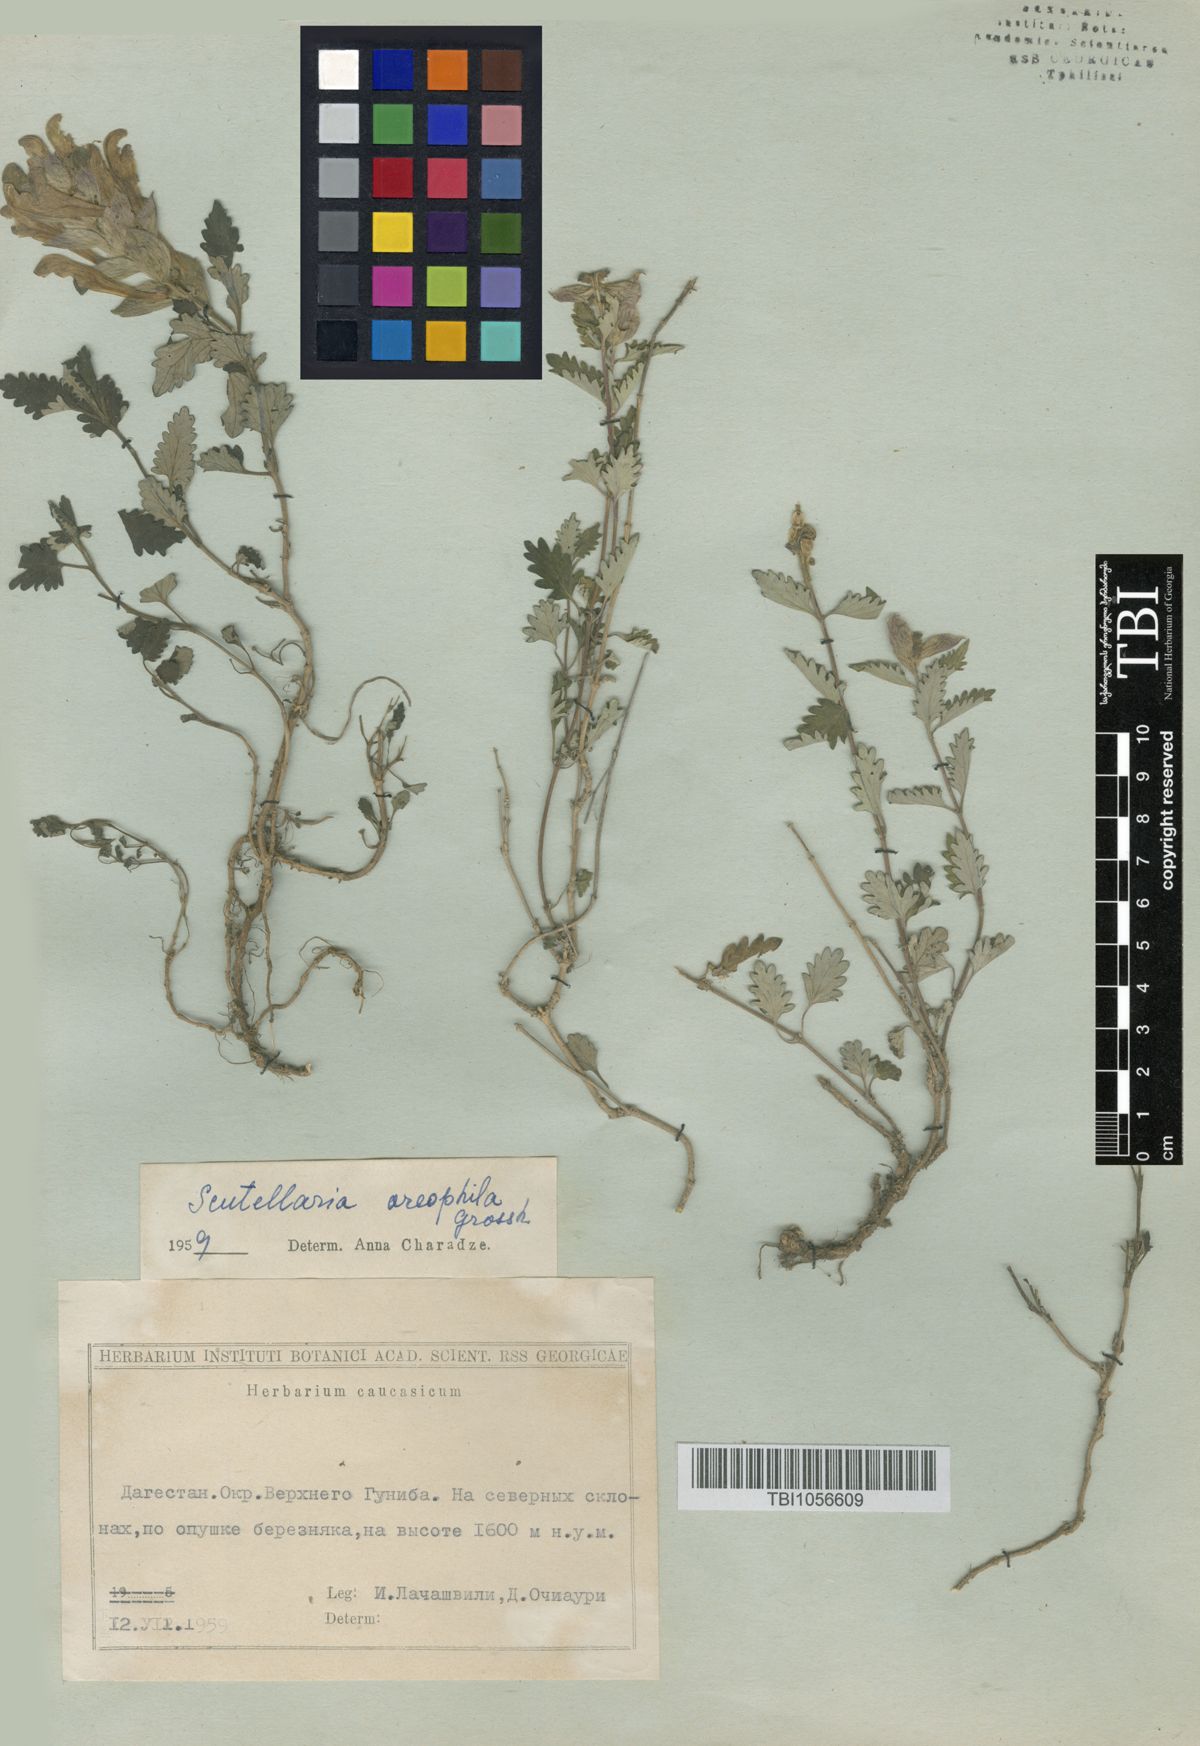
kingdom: Plantae
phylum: Tracheophyta
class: Magnoliopsida
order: Lamiales
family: Lamiaceae
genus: Scutellaria
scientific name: Scutellaria oreophila
